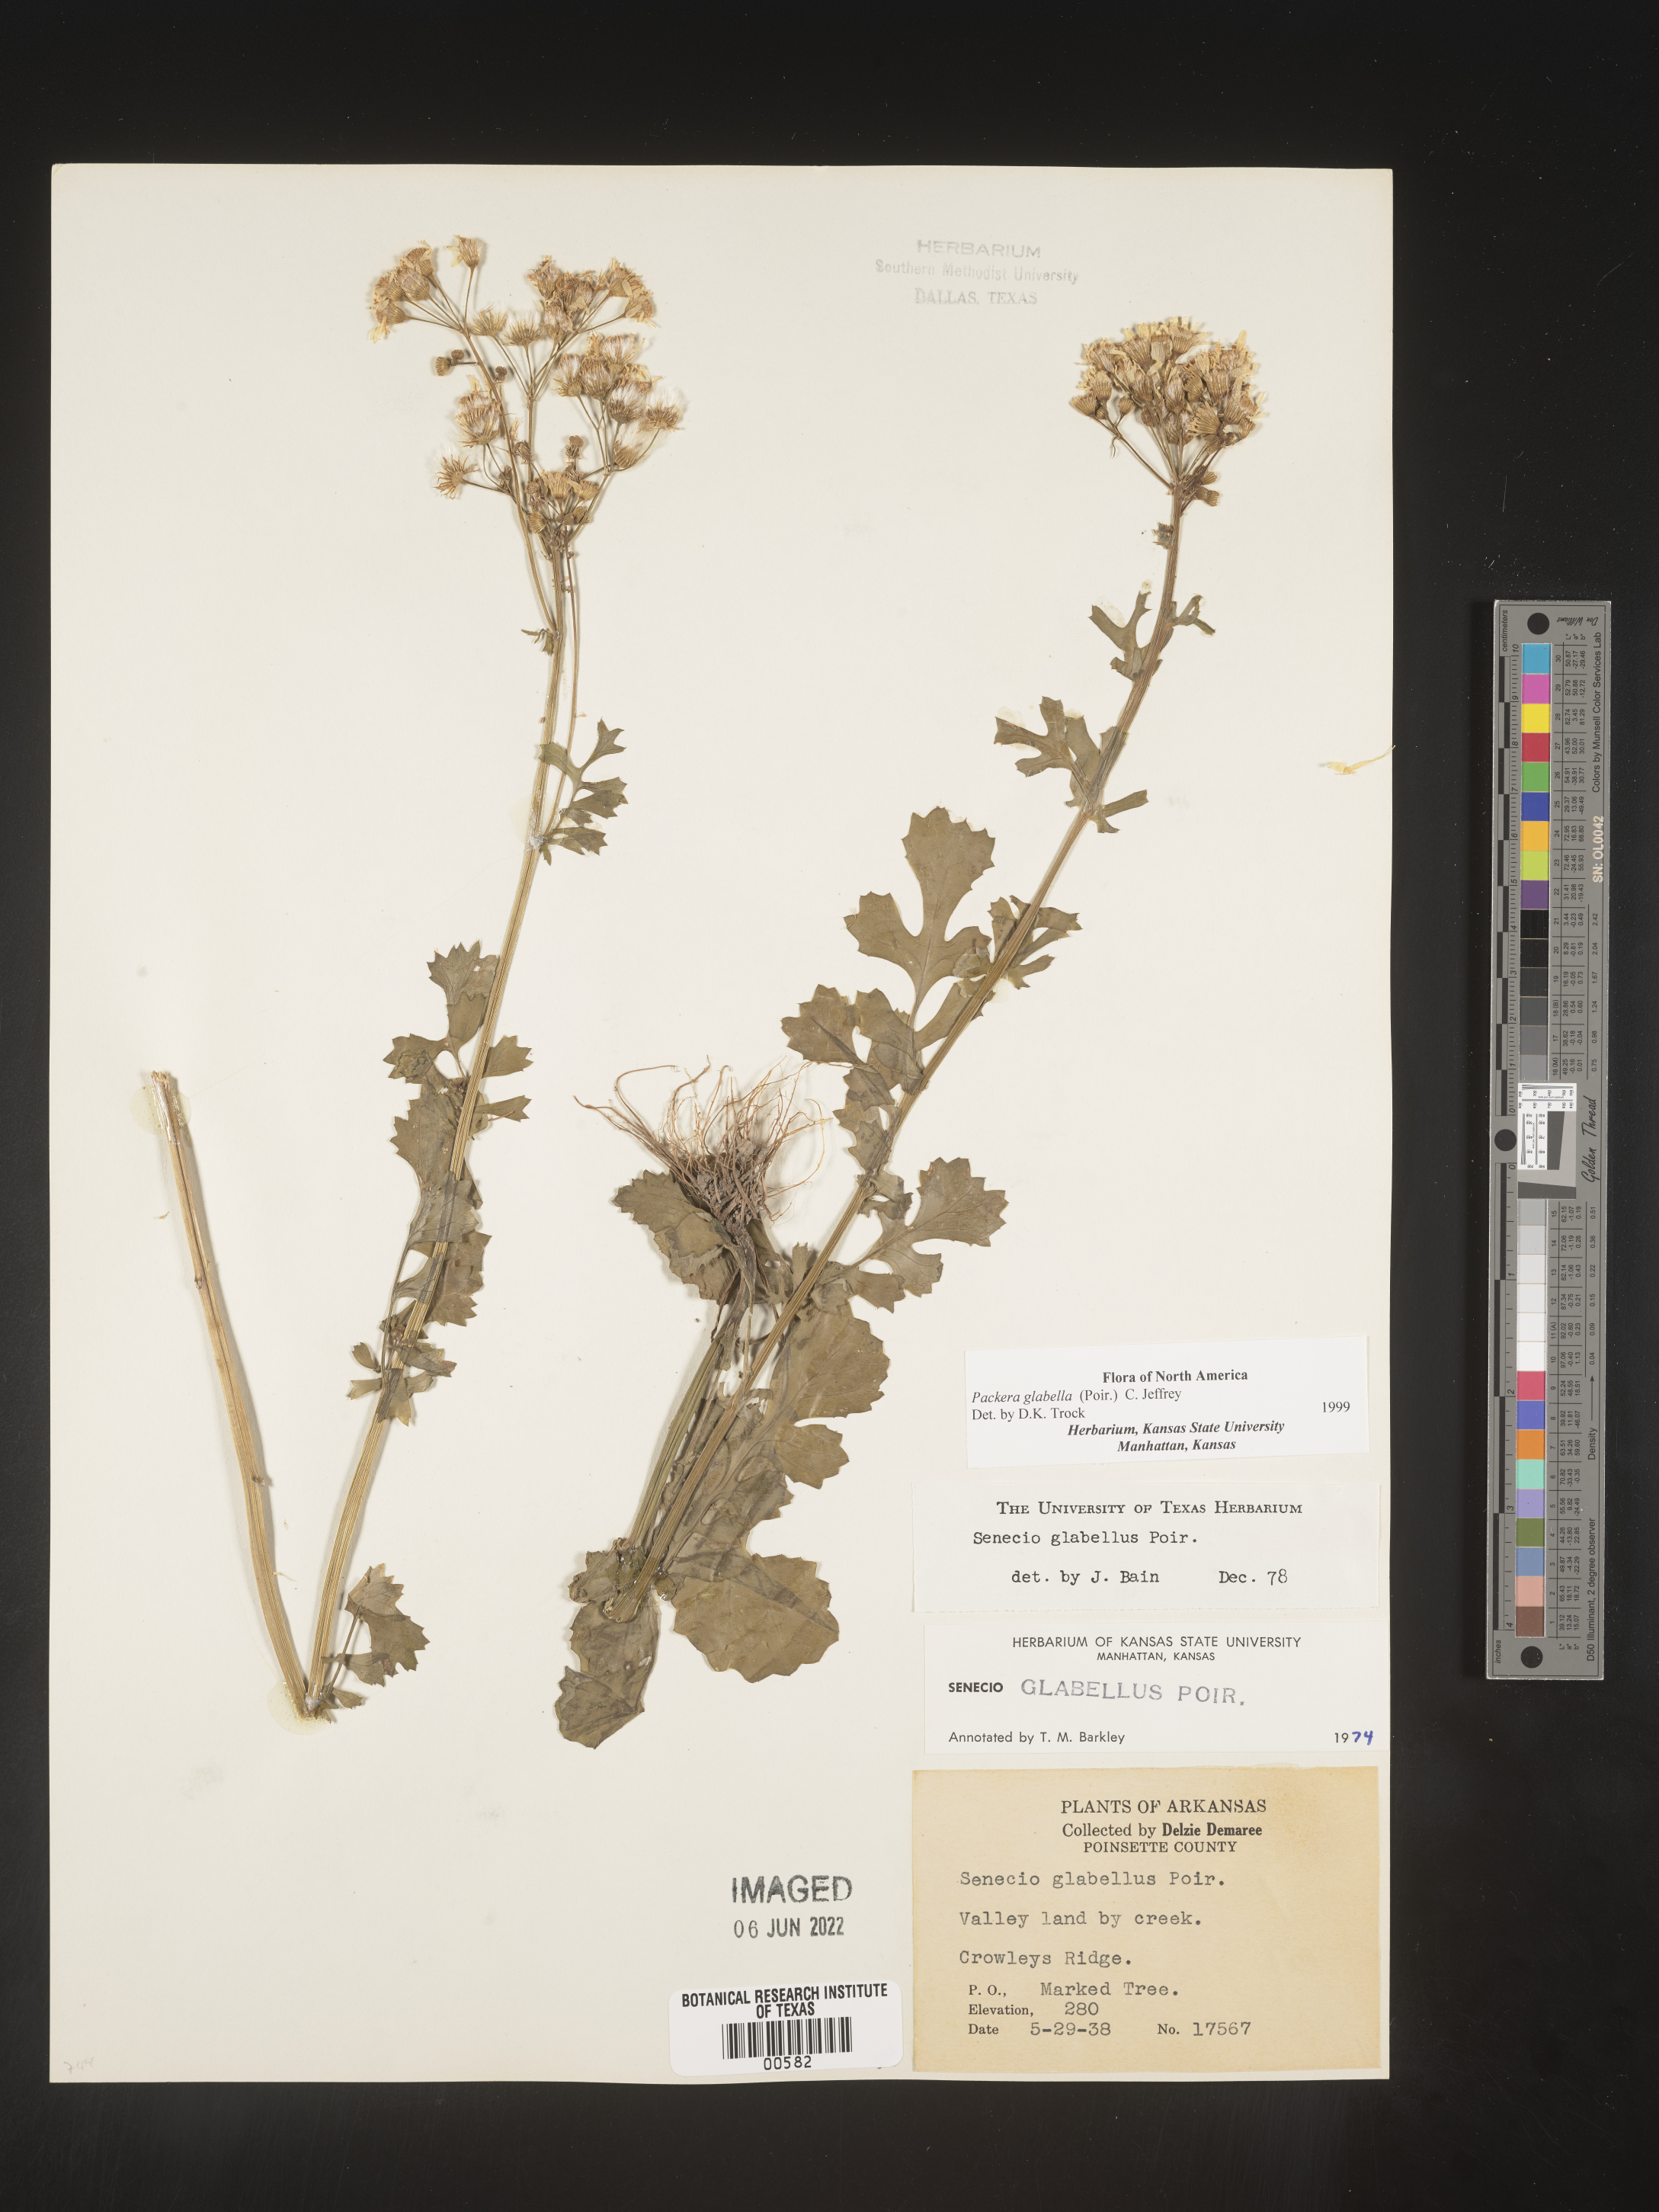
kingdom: Plantae
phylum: Tracheophyta
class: Magnoliopsida
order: Asterales
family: Asteraceae
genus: Packera
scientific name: Packera glabella
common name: Butterweed
